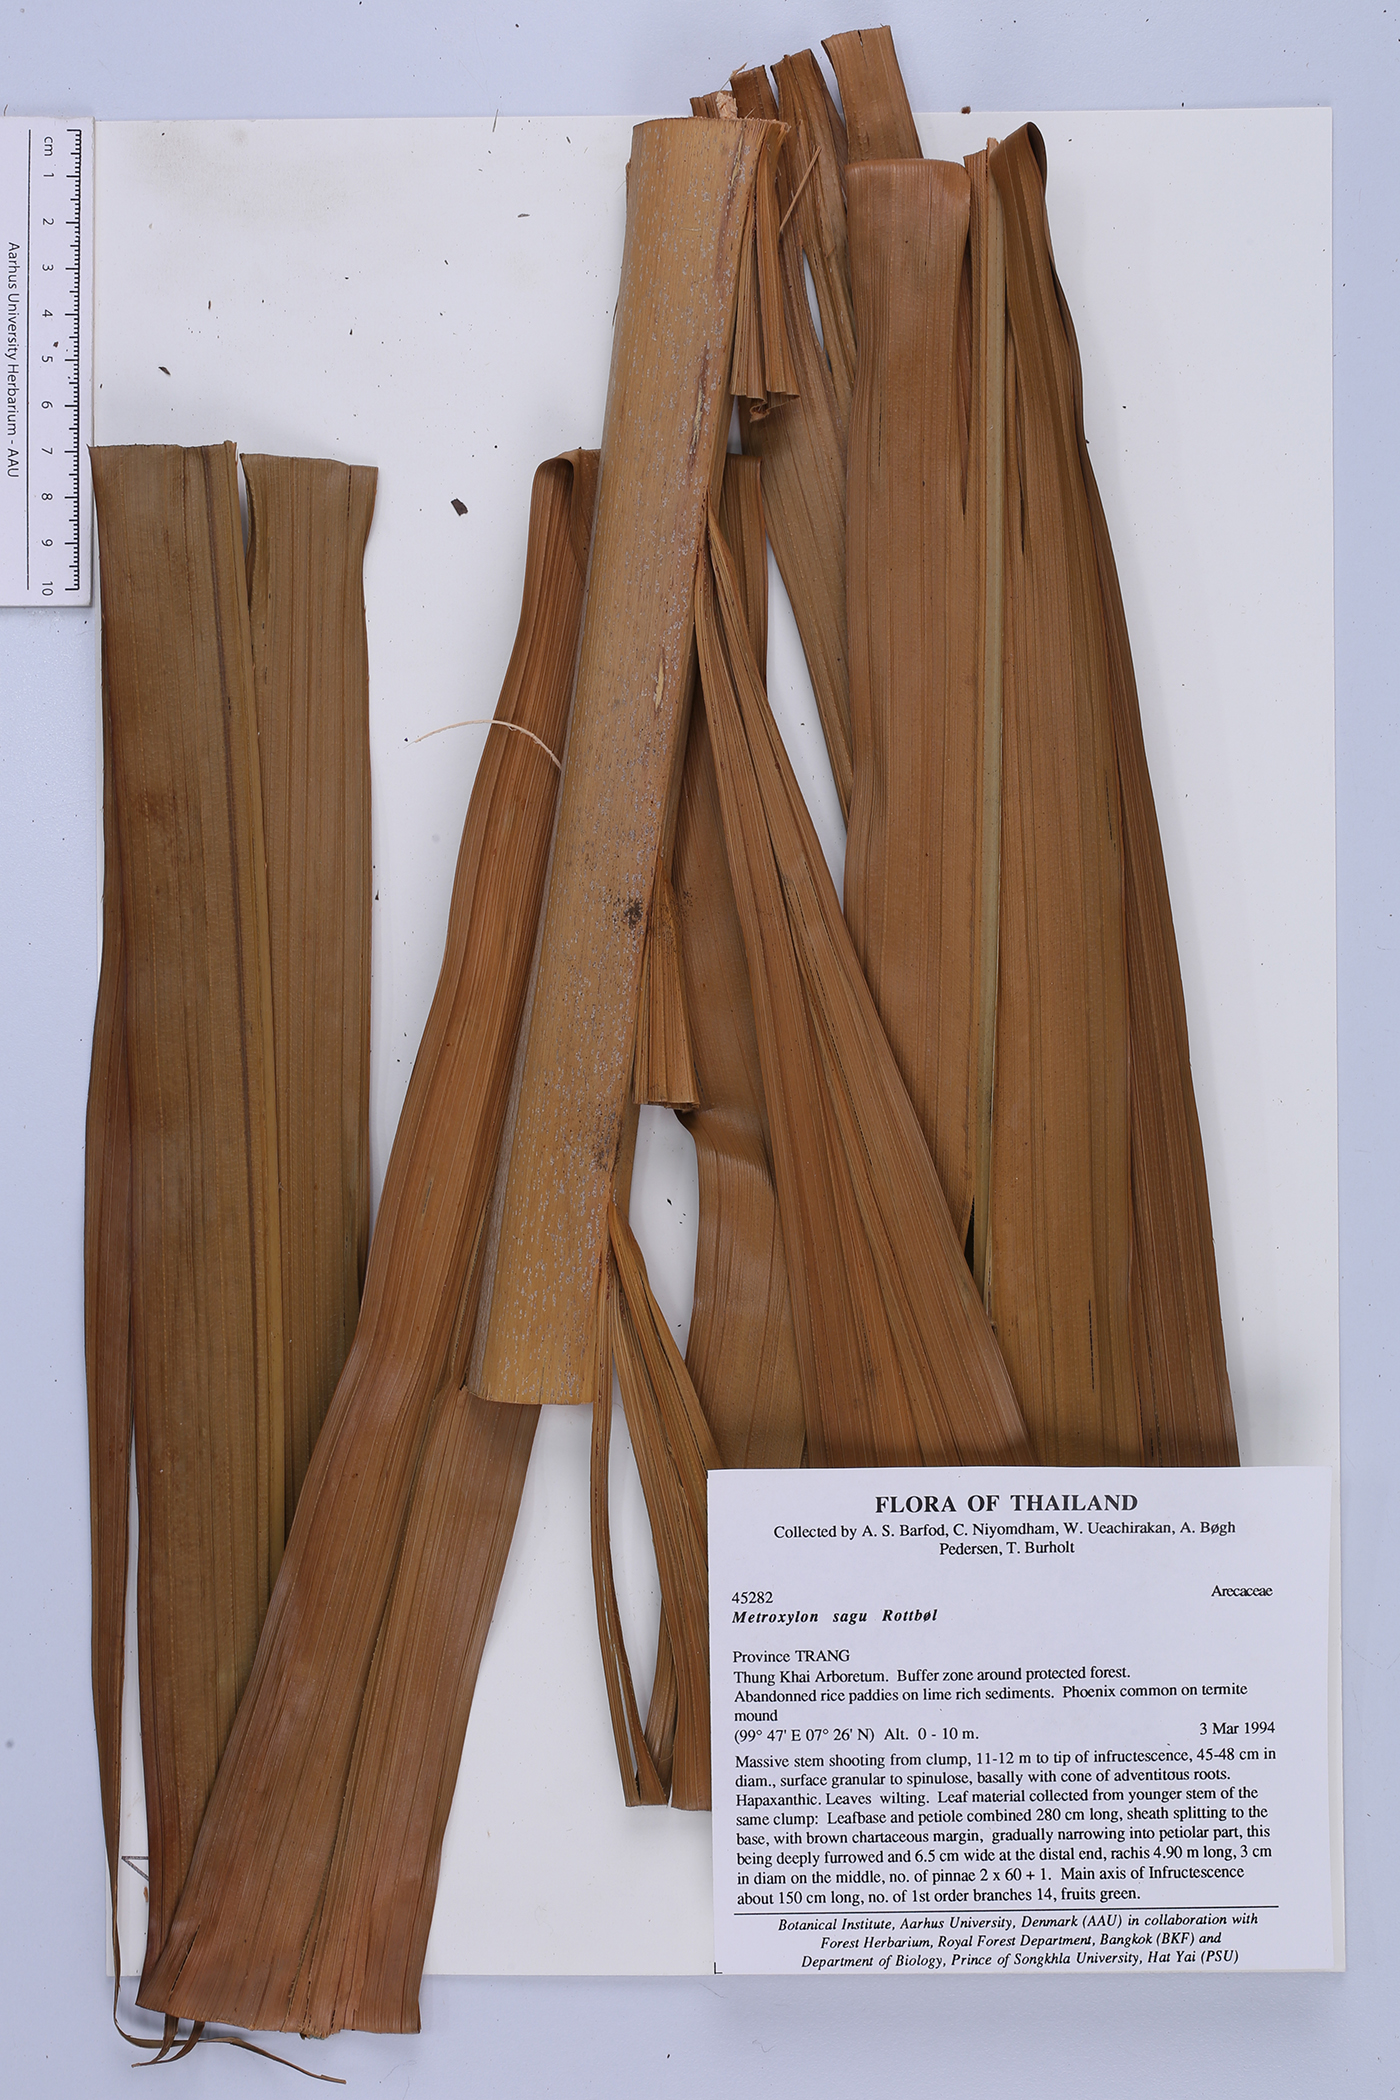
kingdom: Plantae
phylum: Tracheophyta
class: Liliopsida
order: Arecales
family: Arecaceae
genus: Metroxylon
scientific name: Metroxylon sagu
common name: Sago palm
